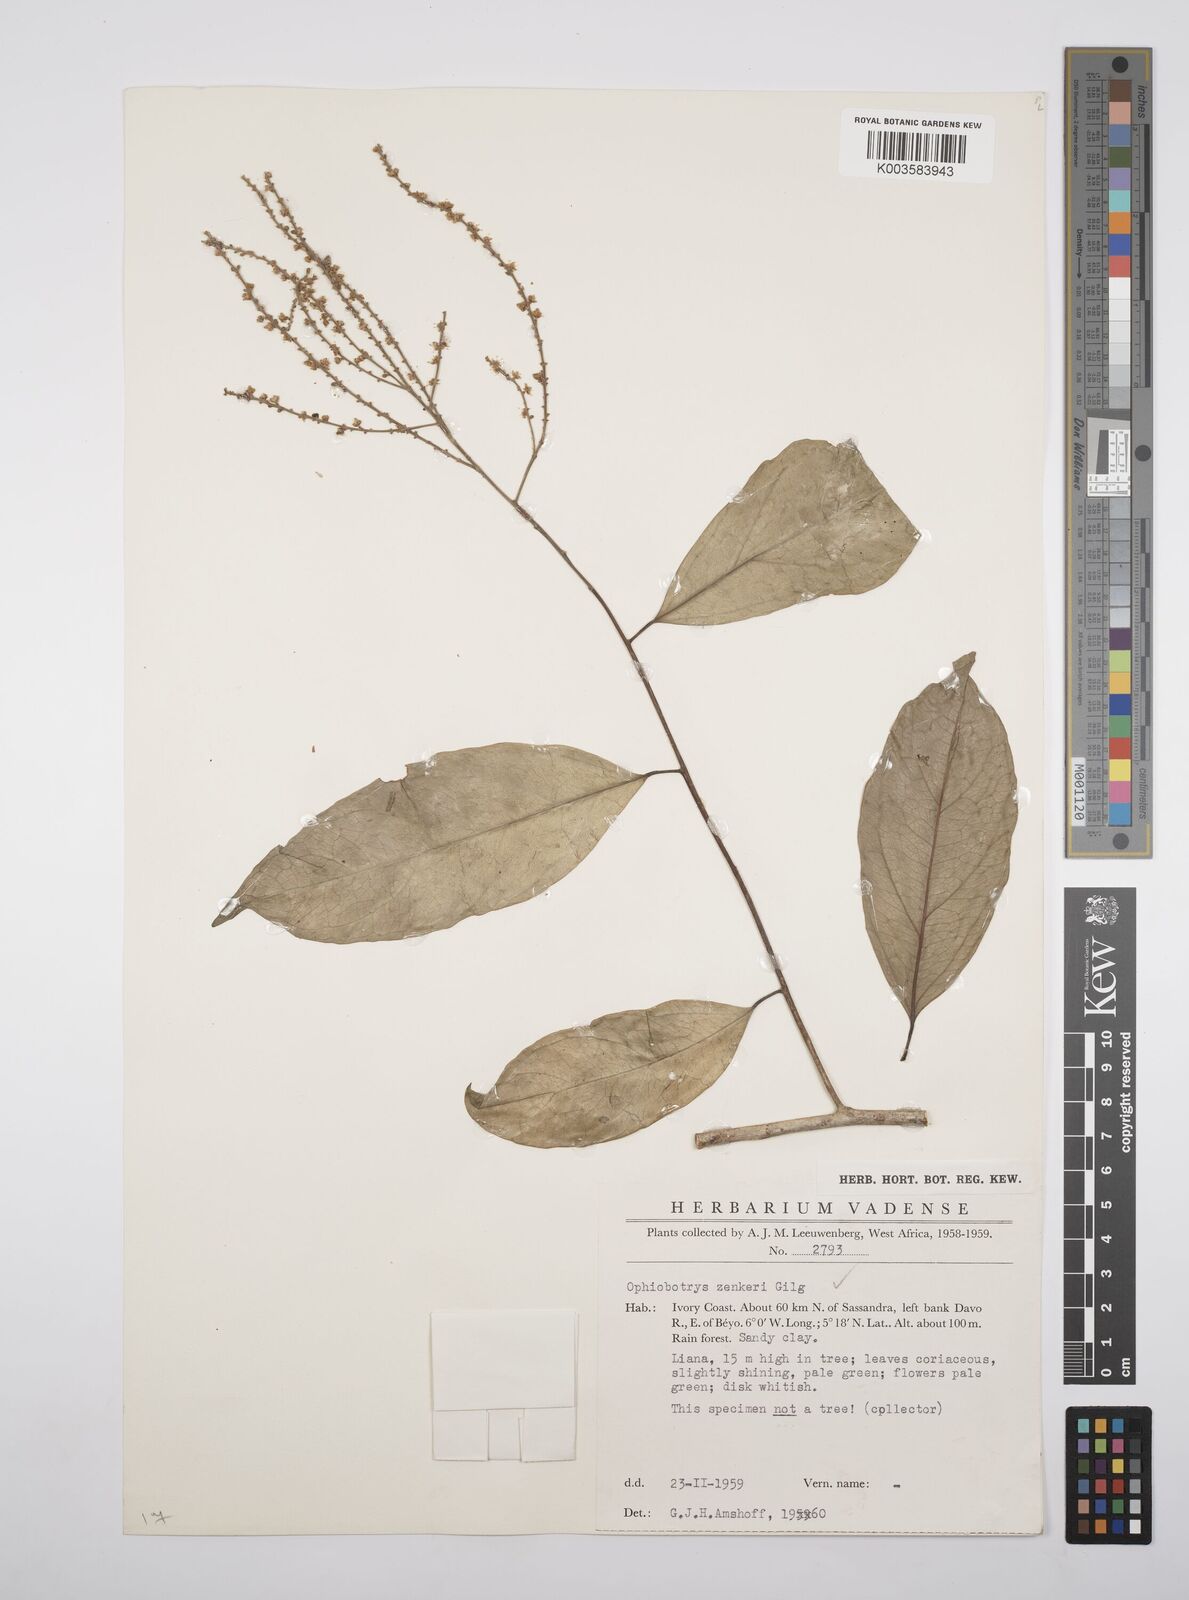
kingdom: Plantae
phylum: Tracheophyta
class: Magnoliopsida
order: Malpighiales
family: Salicaceae
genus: Ophiobotrys
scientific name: Ophiobotrys zenkeri
